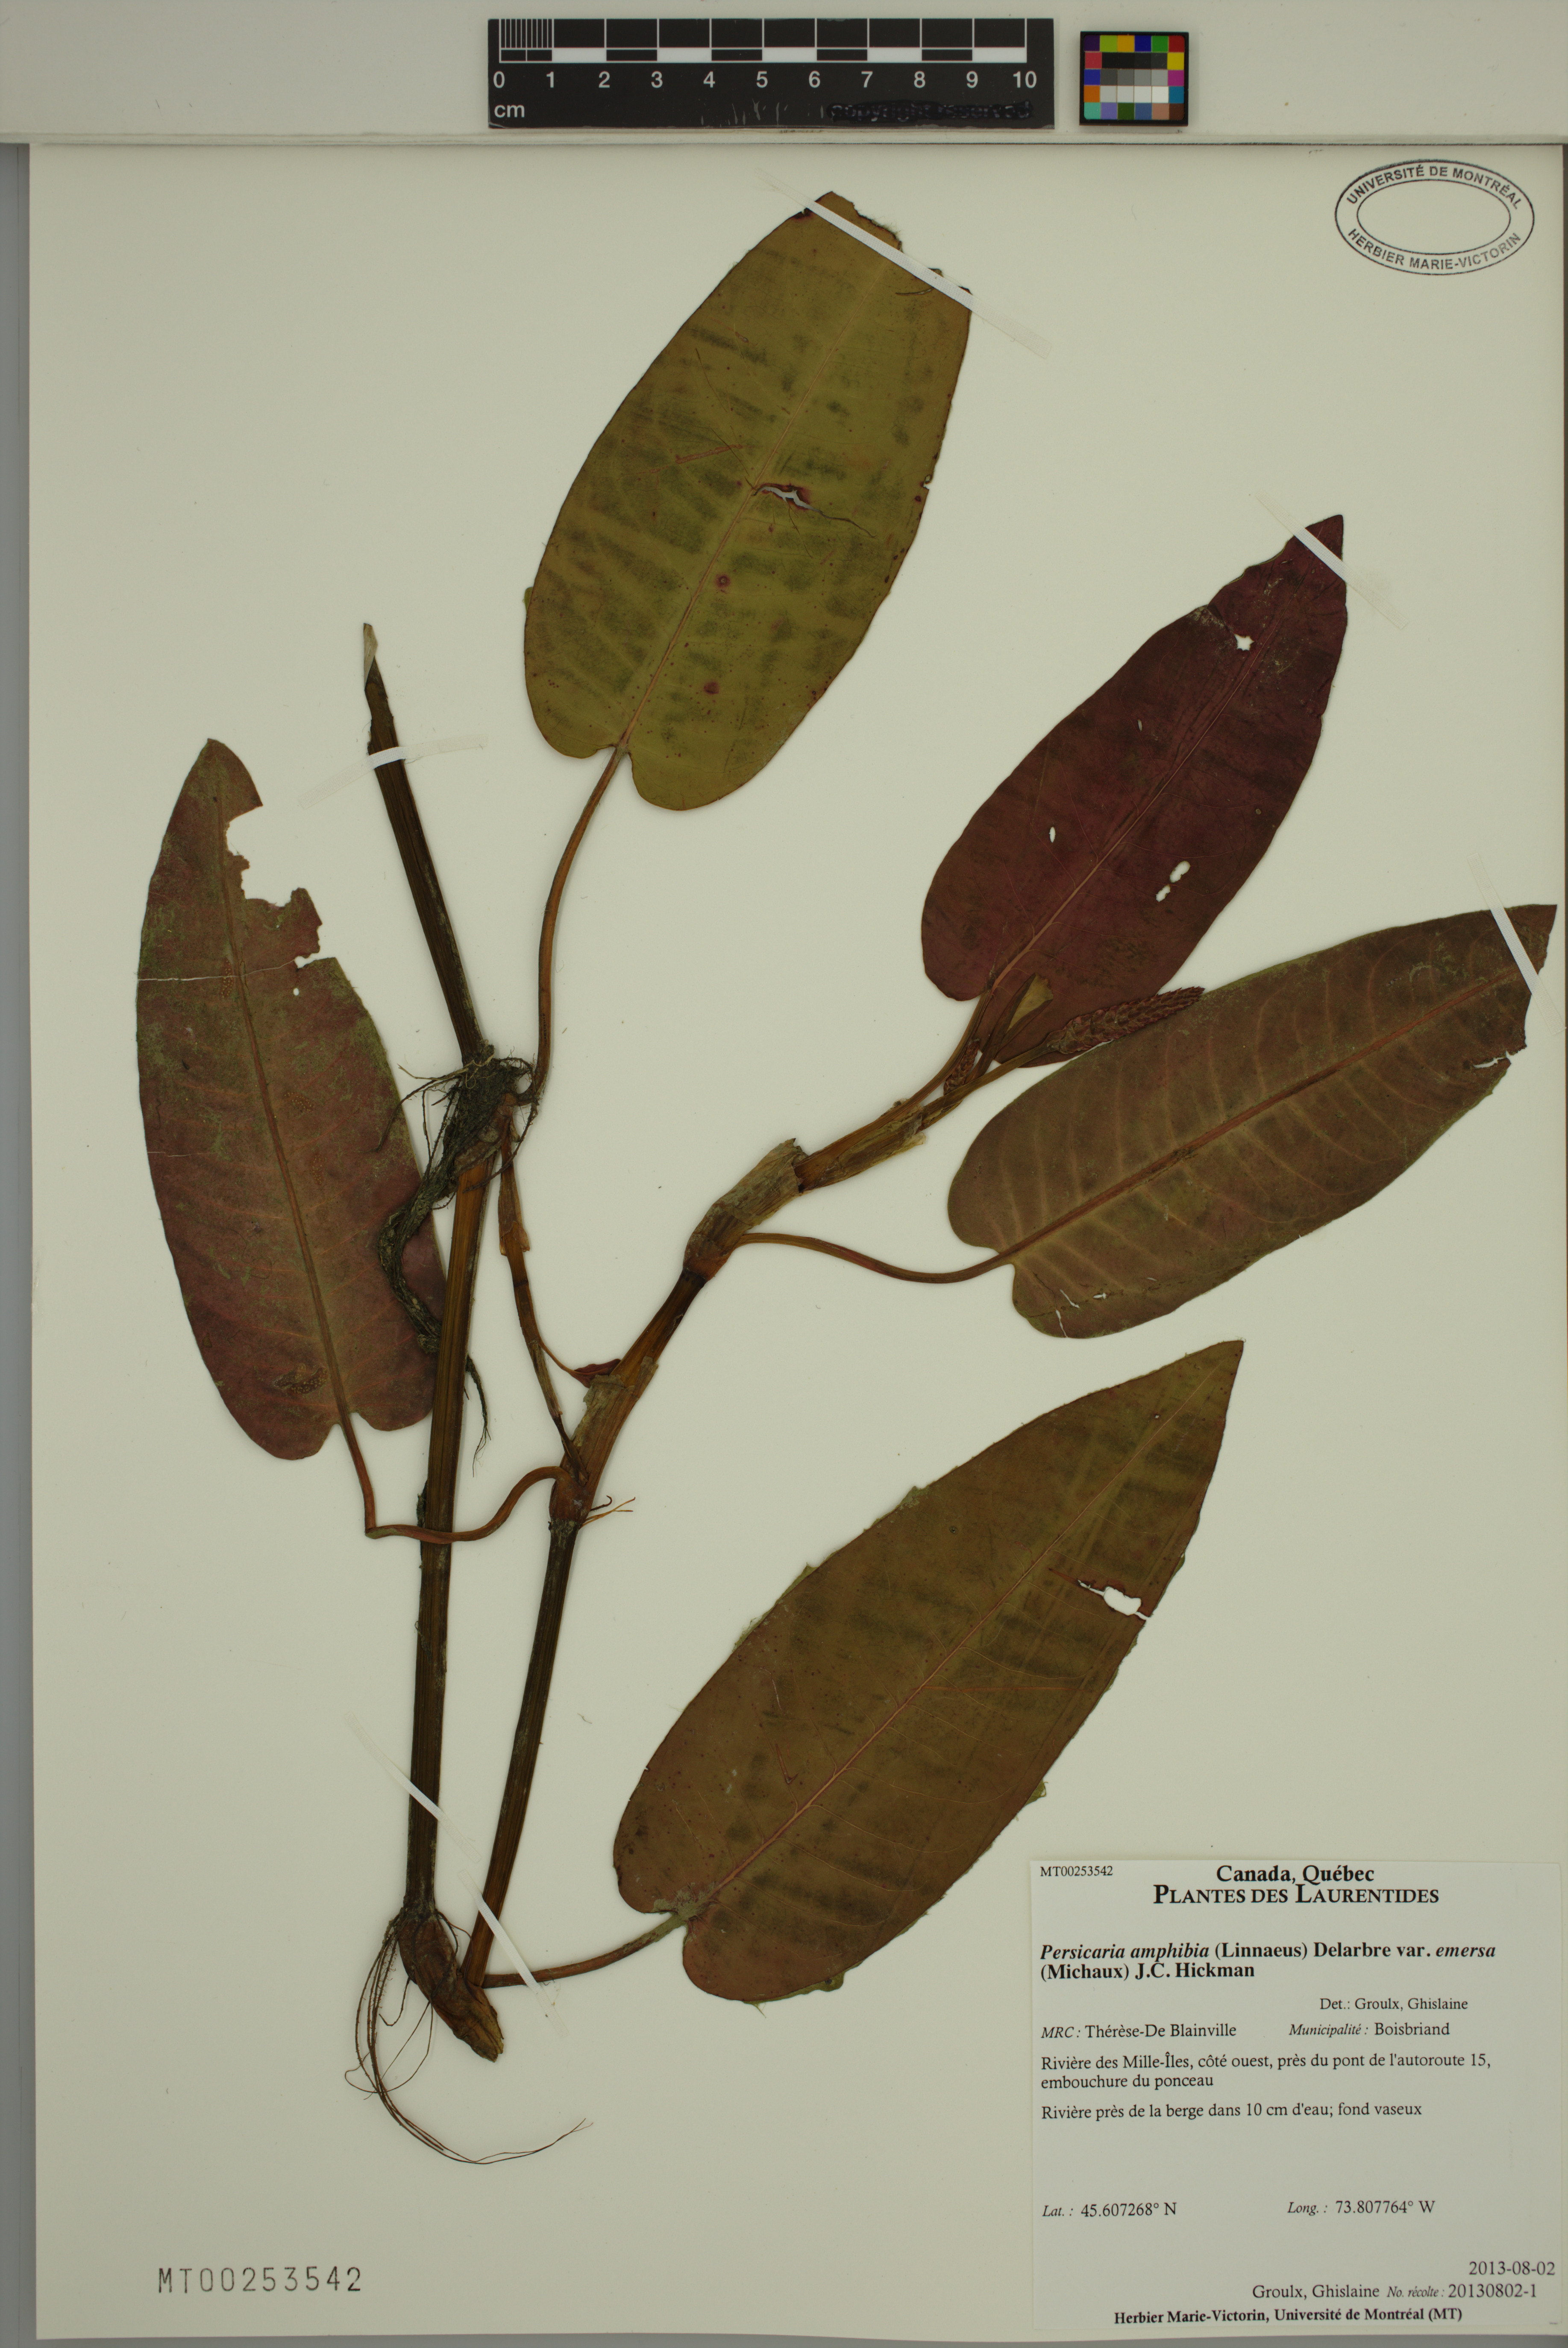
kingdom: Plantae
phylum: Tracheophyta
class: Magnoliopsida
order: Caryophyllales
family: Polygonaceae
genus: Persicaria
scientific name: Persicaria amphibia
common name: Amphibious bistort
